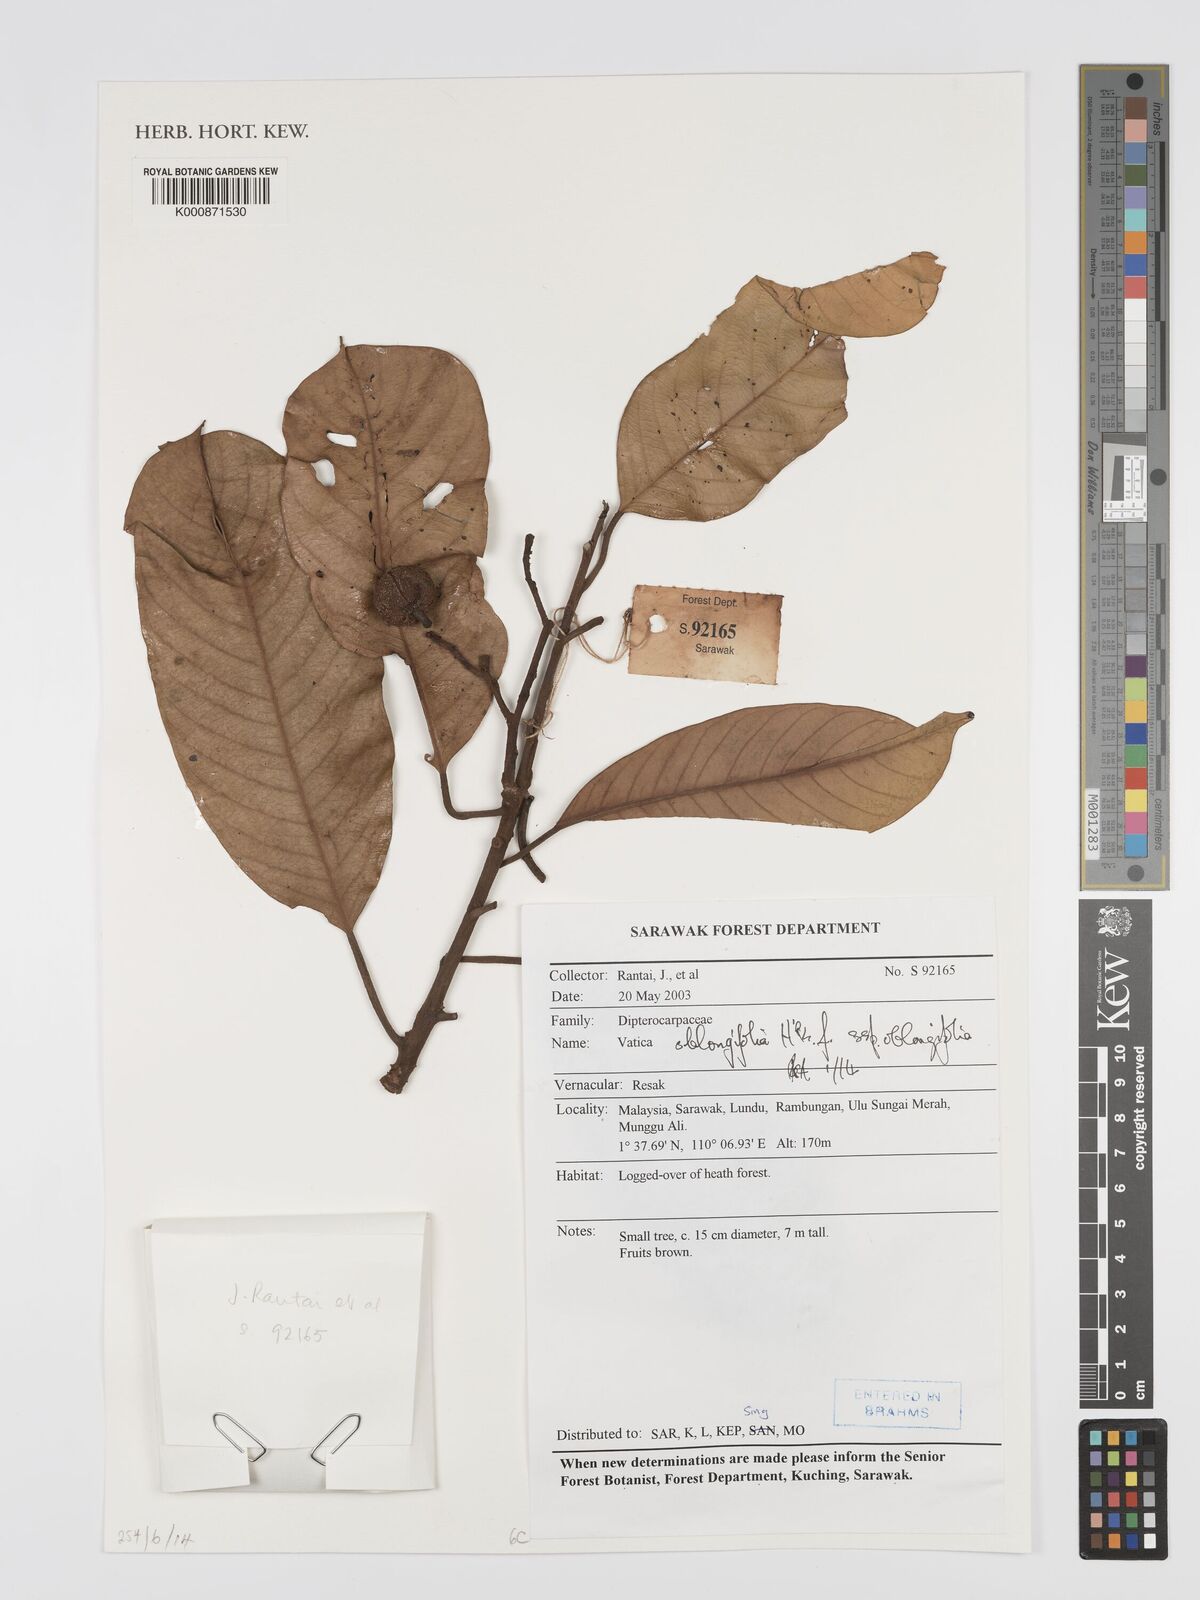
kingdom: Plantae
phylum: Tracheophyta
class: Magnoliopsida
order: Malvales
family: Dipterocarpaceae
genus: Vatica
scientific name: Vatica oblongifolia
